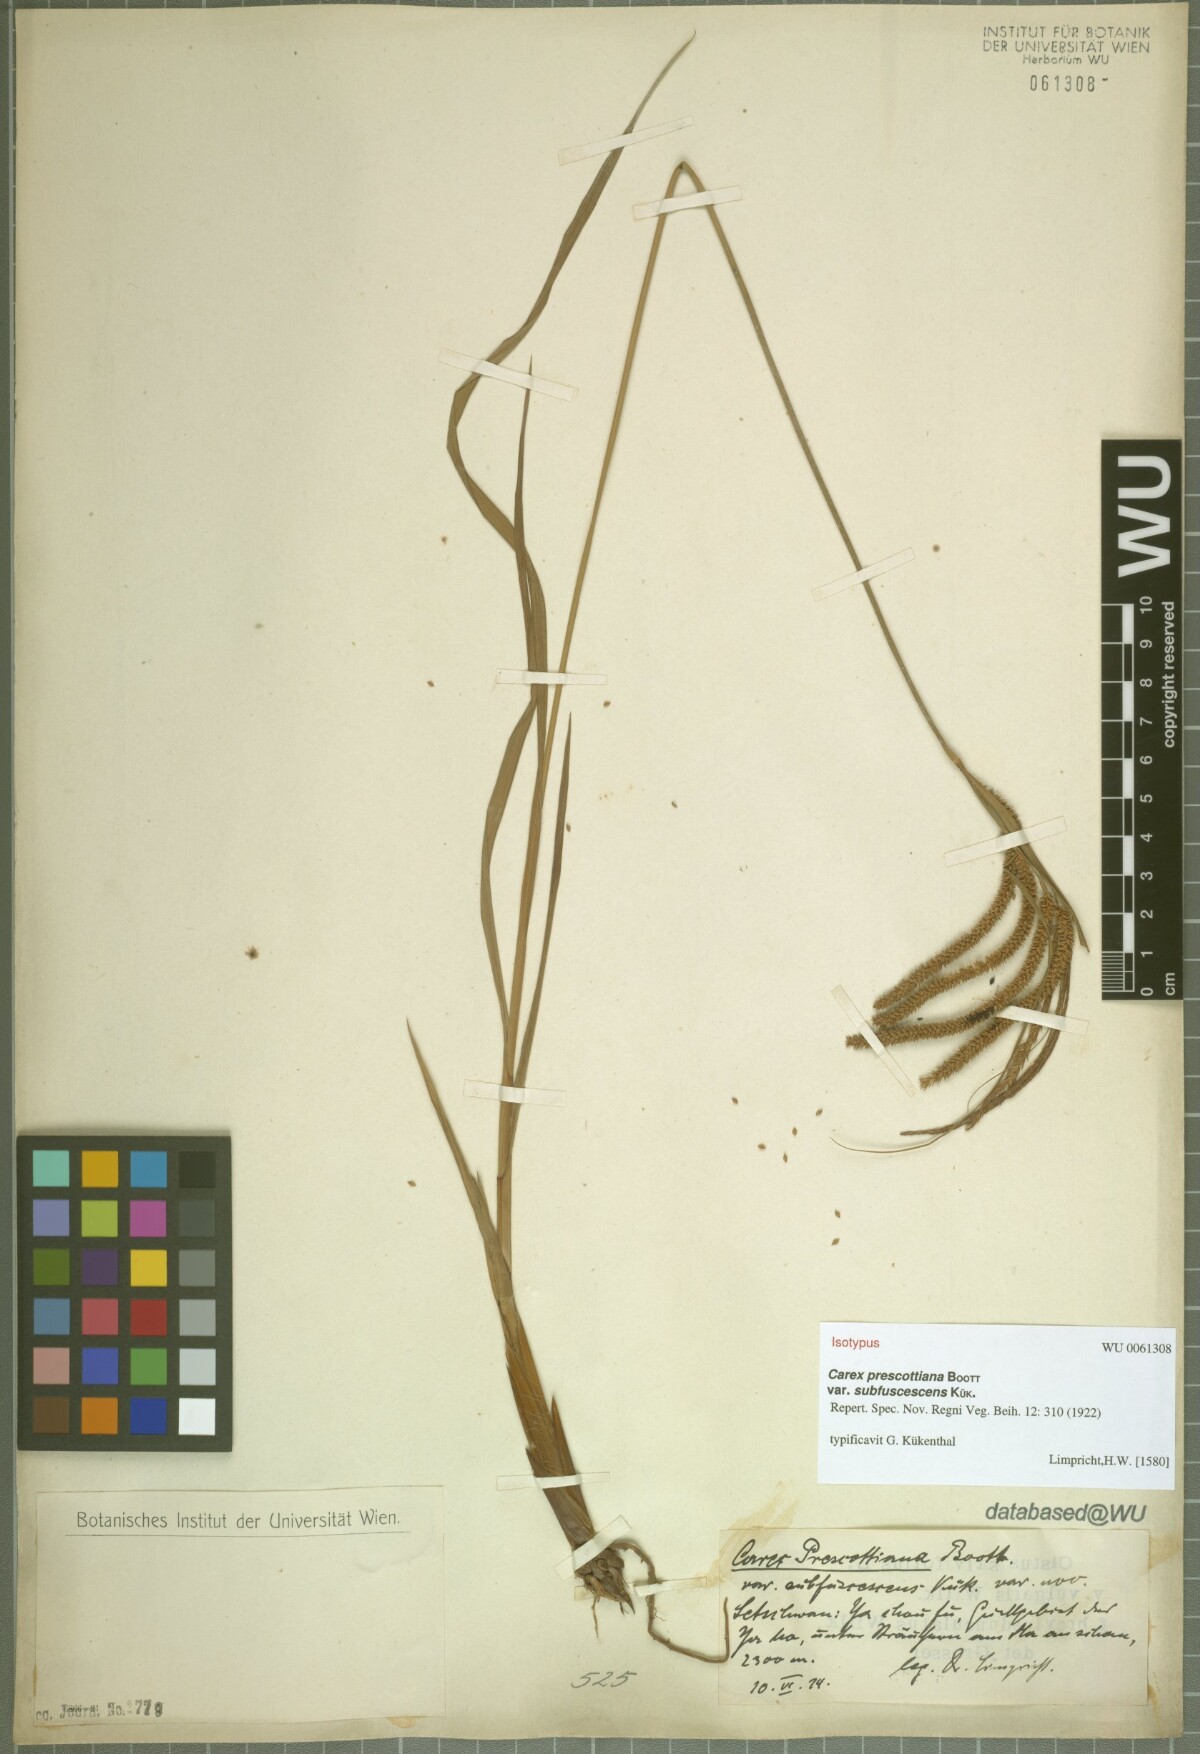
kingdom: Plantae
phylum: Tracheophyta
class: Liliopsida
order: Poales
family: Cyperaceae
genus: Carex
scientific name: Carex prescottiana
